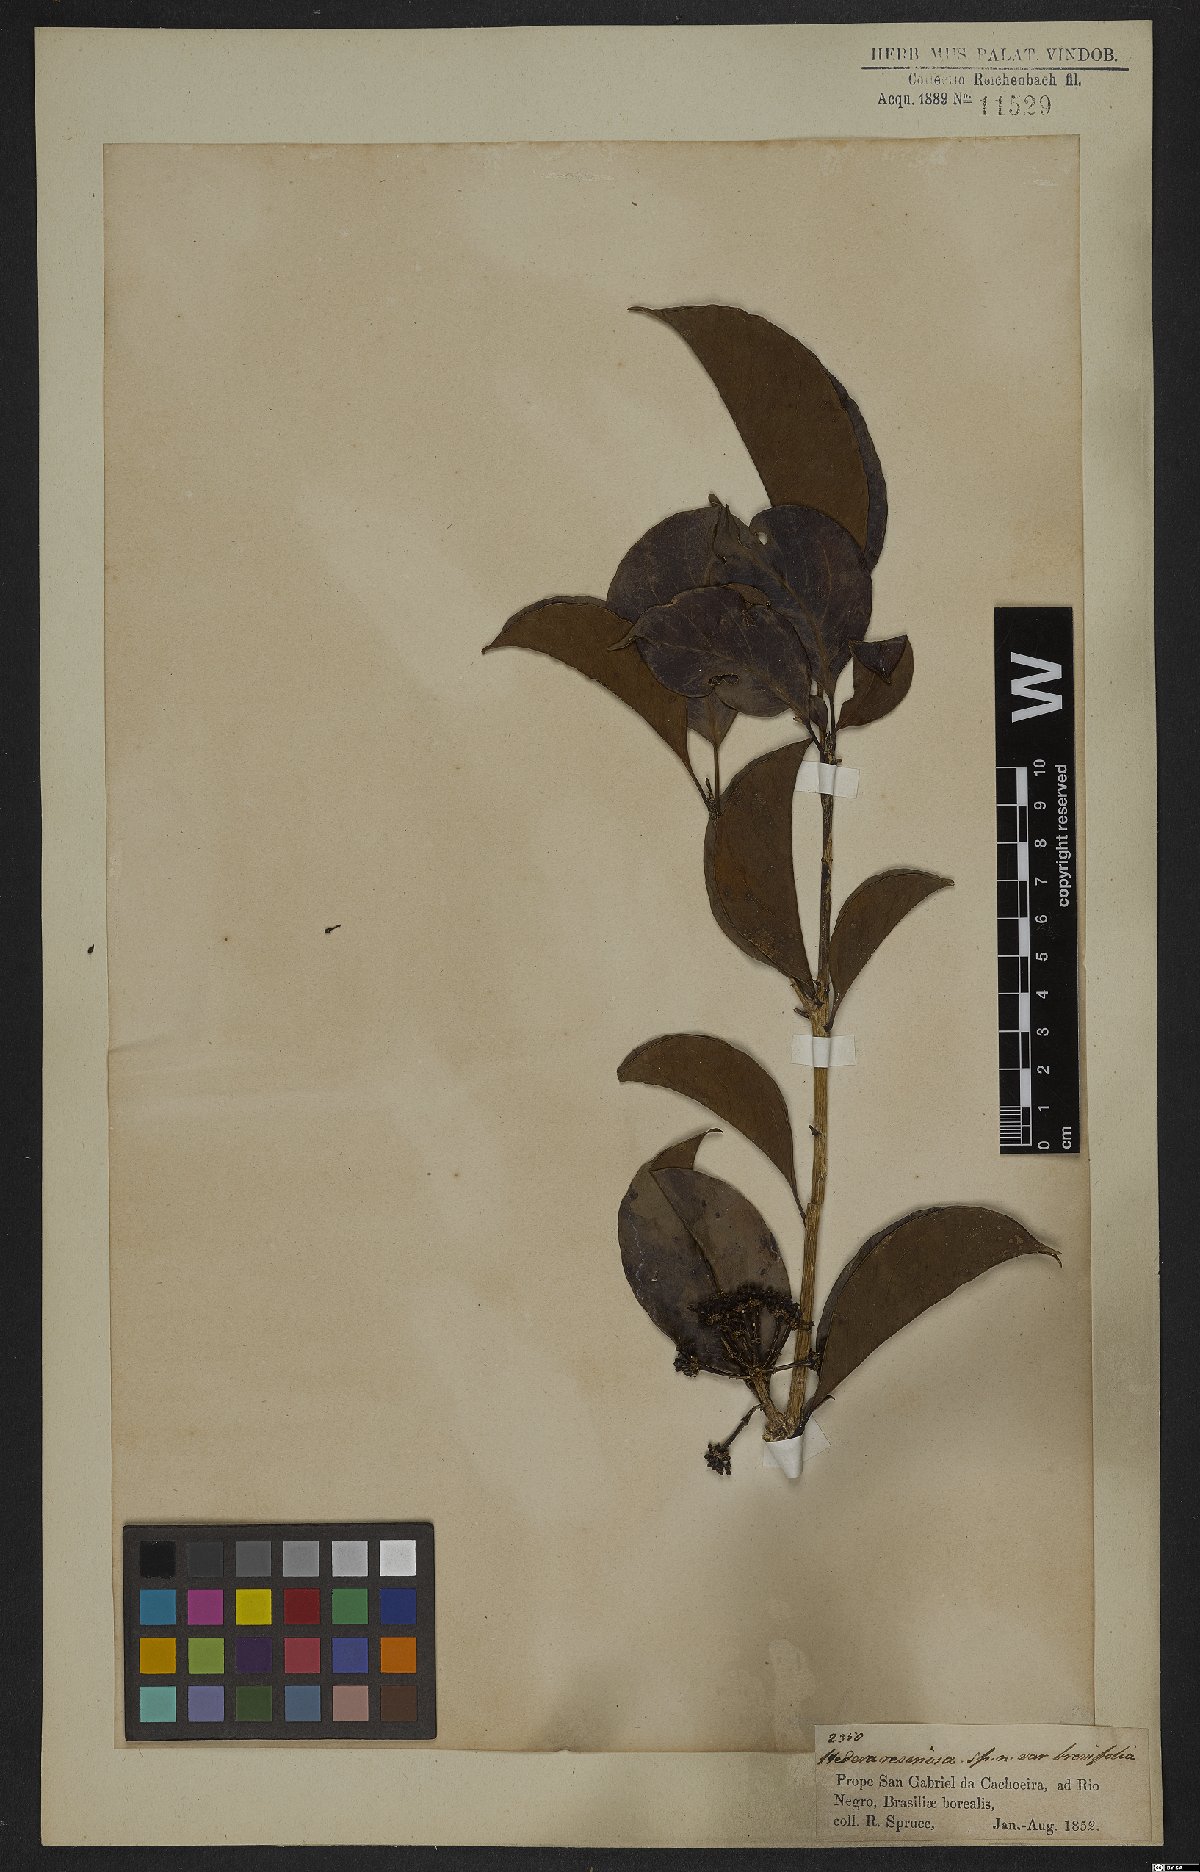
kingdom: Plantae
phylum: Tracheophyta
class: Magnoliopsida
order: Apiales
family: Araliaceae
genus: Dendropanax
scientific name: Dendropanax resinosus
